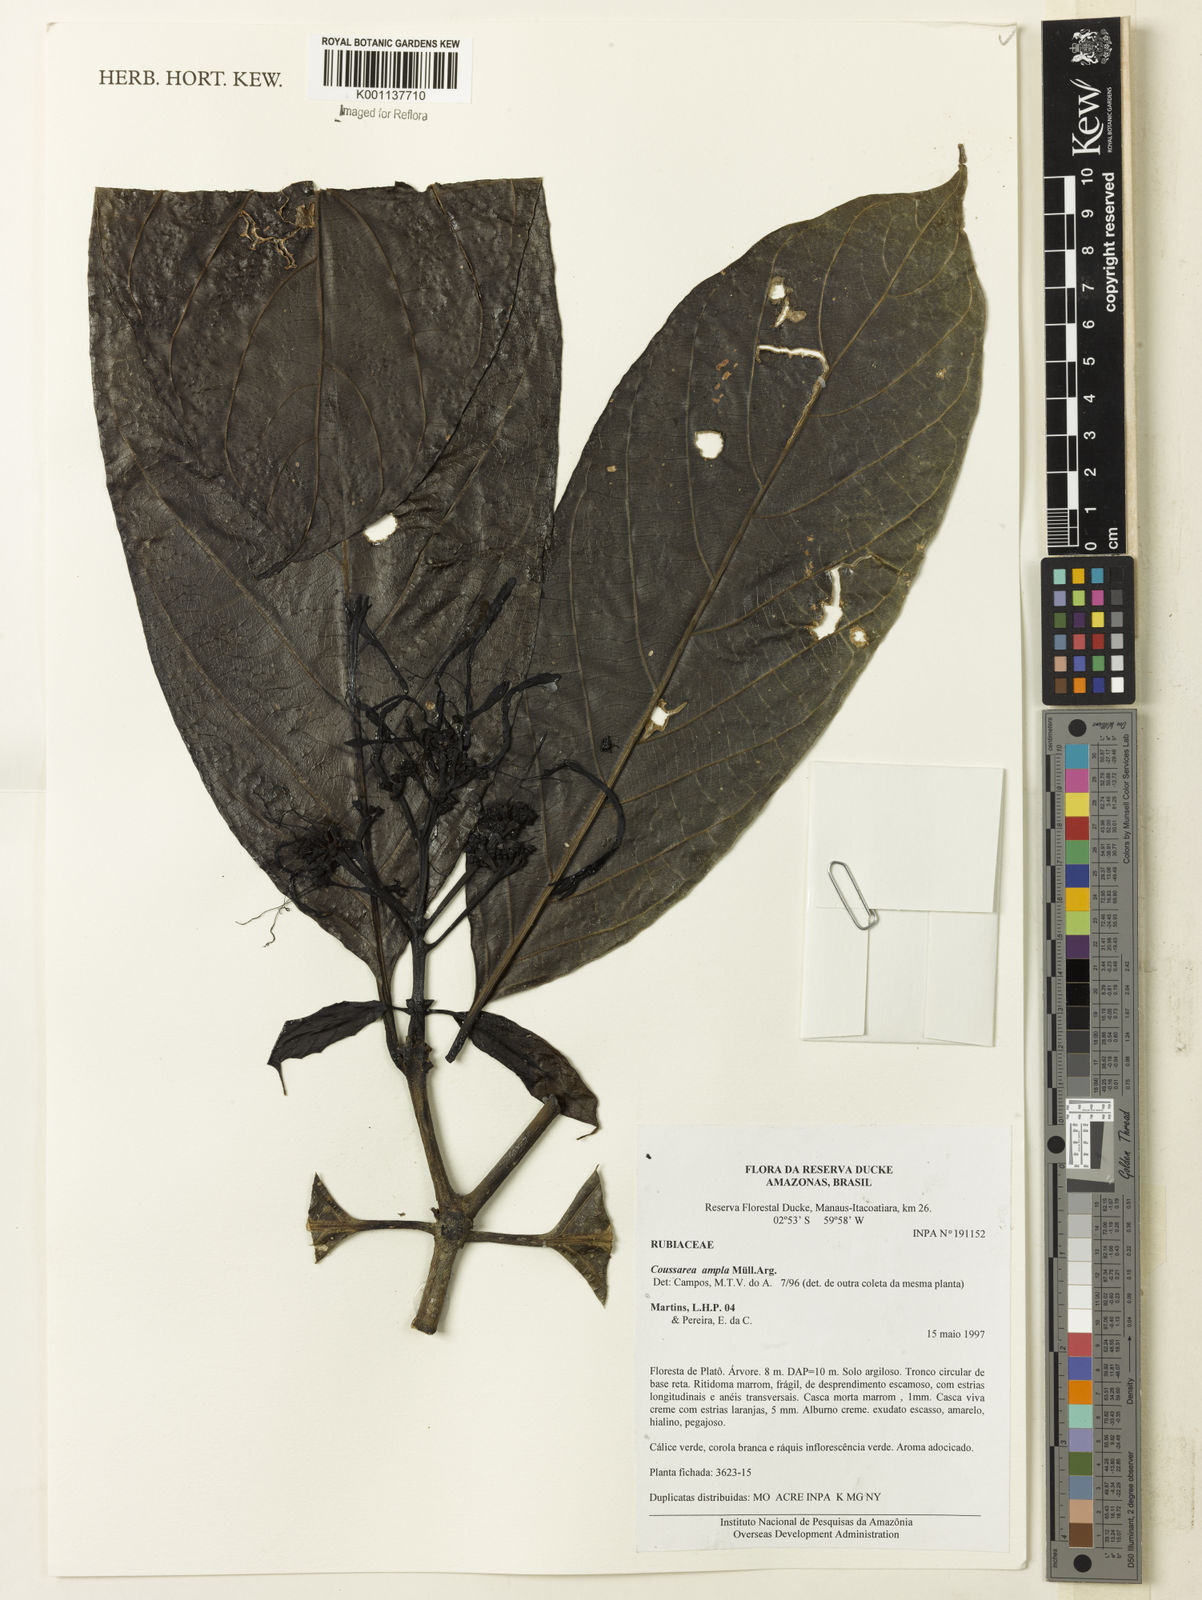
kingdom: Plantae
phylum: Tracheophyta
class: Magnoliopsida
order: Gentianales
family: Rubiaceae
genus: Coussarea
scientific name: Coussarea
